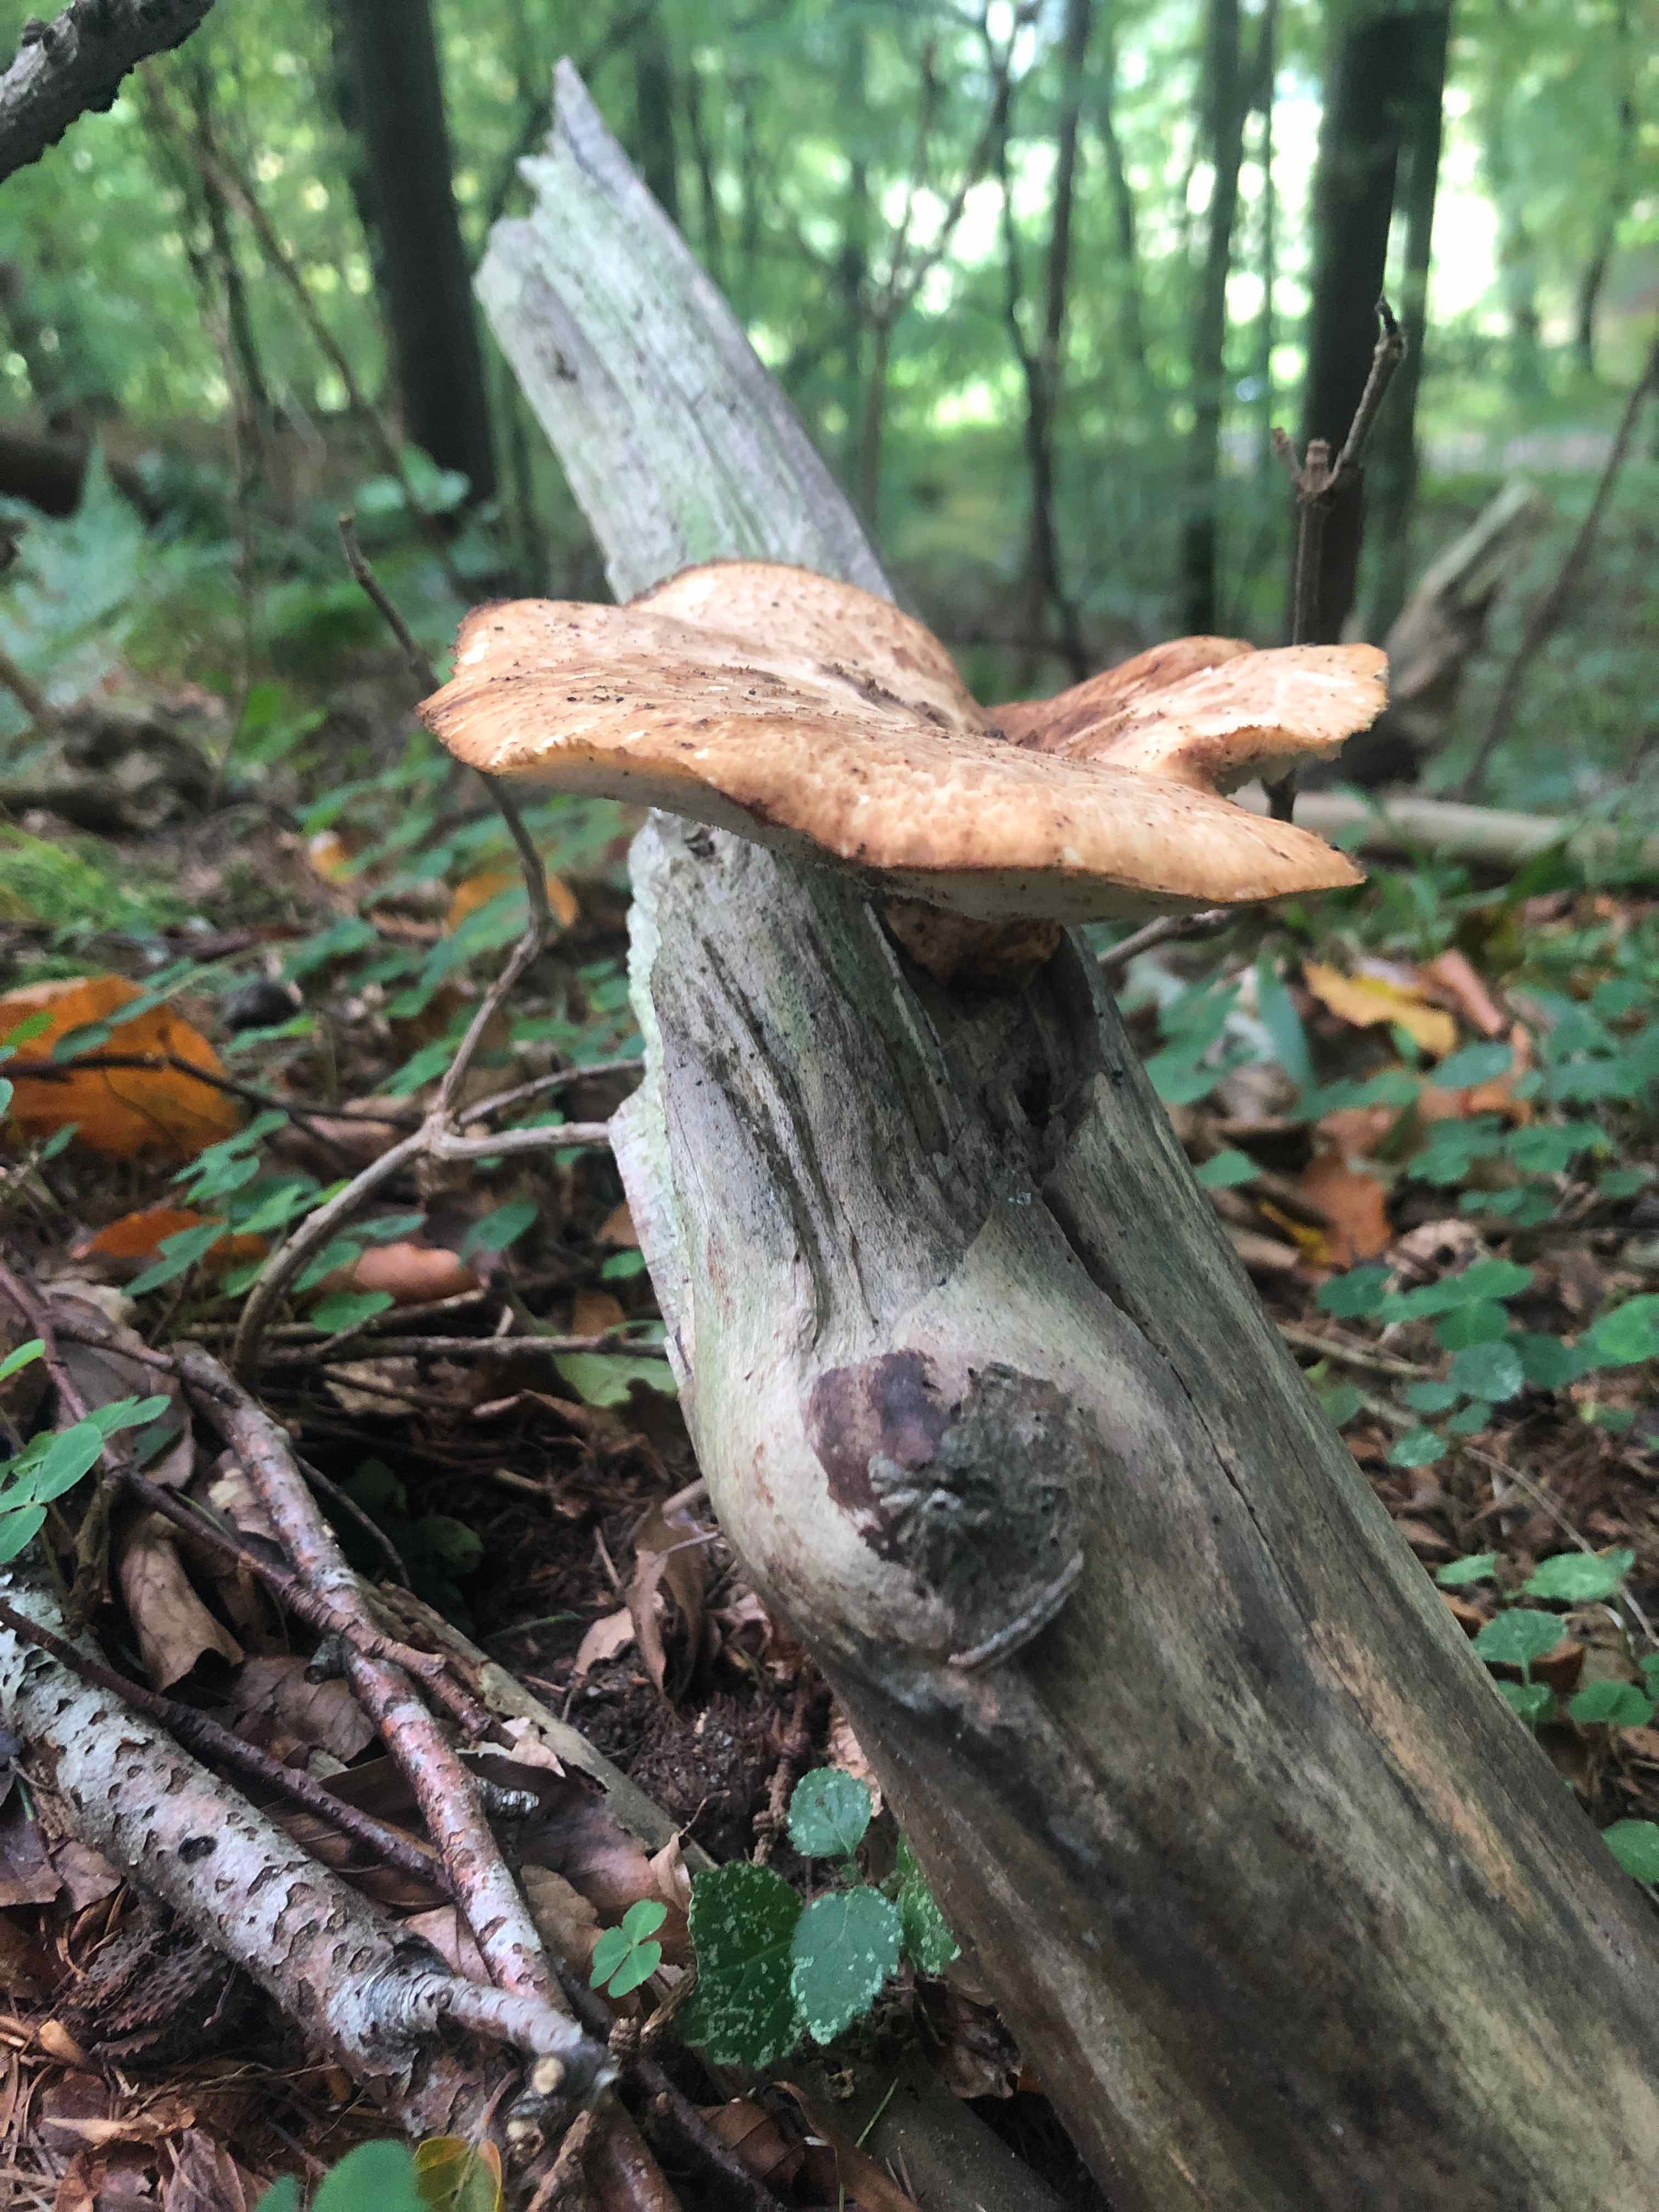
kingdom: Fungi
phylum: Basidiomycota
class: Agaricomycetes
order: Polyporales
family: Polyporaceae
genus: Cerioporus
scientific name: Cerioporus squamosus
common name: skællet stilkporesvamp
